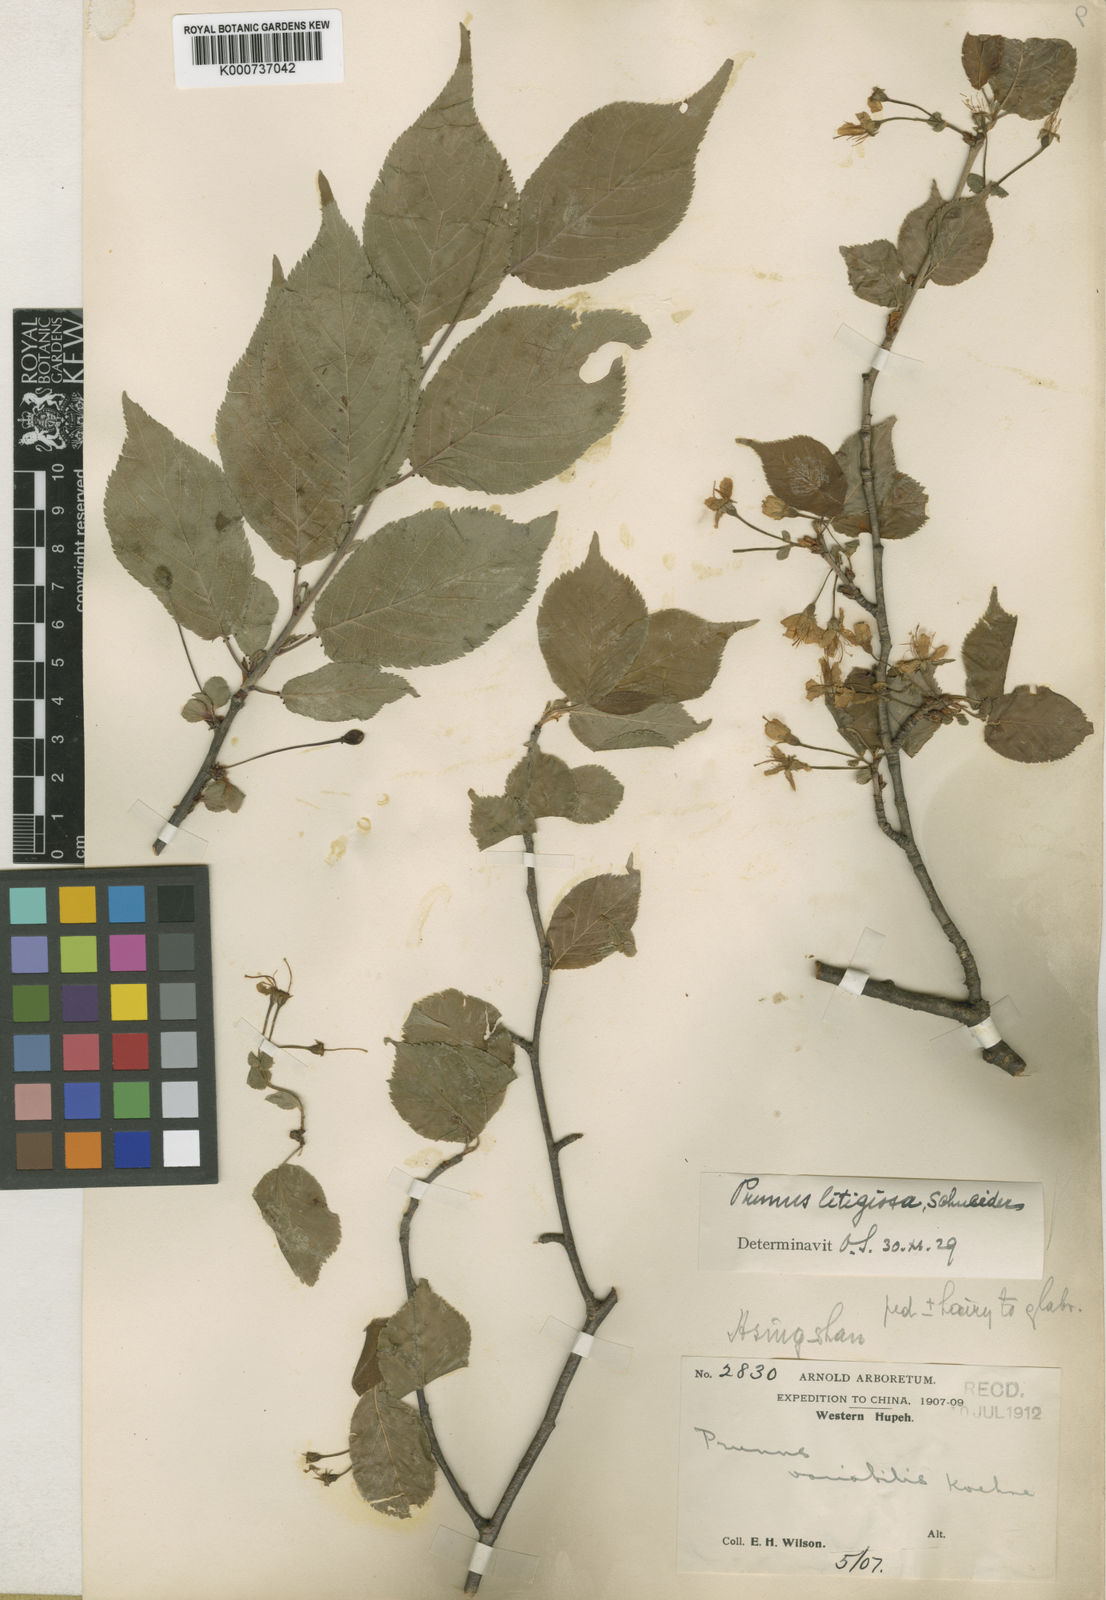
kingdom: Plantae
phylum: Tracheophyta
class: Magnoliopsida
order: Rosales
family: Rosaceae
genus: Prunus
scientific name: Prunus clarofolia
